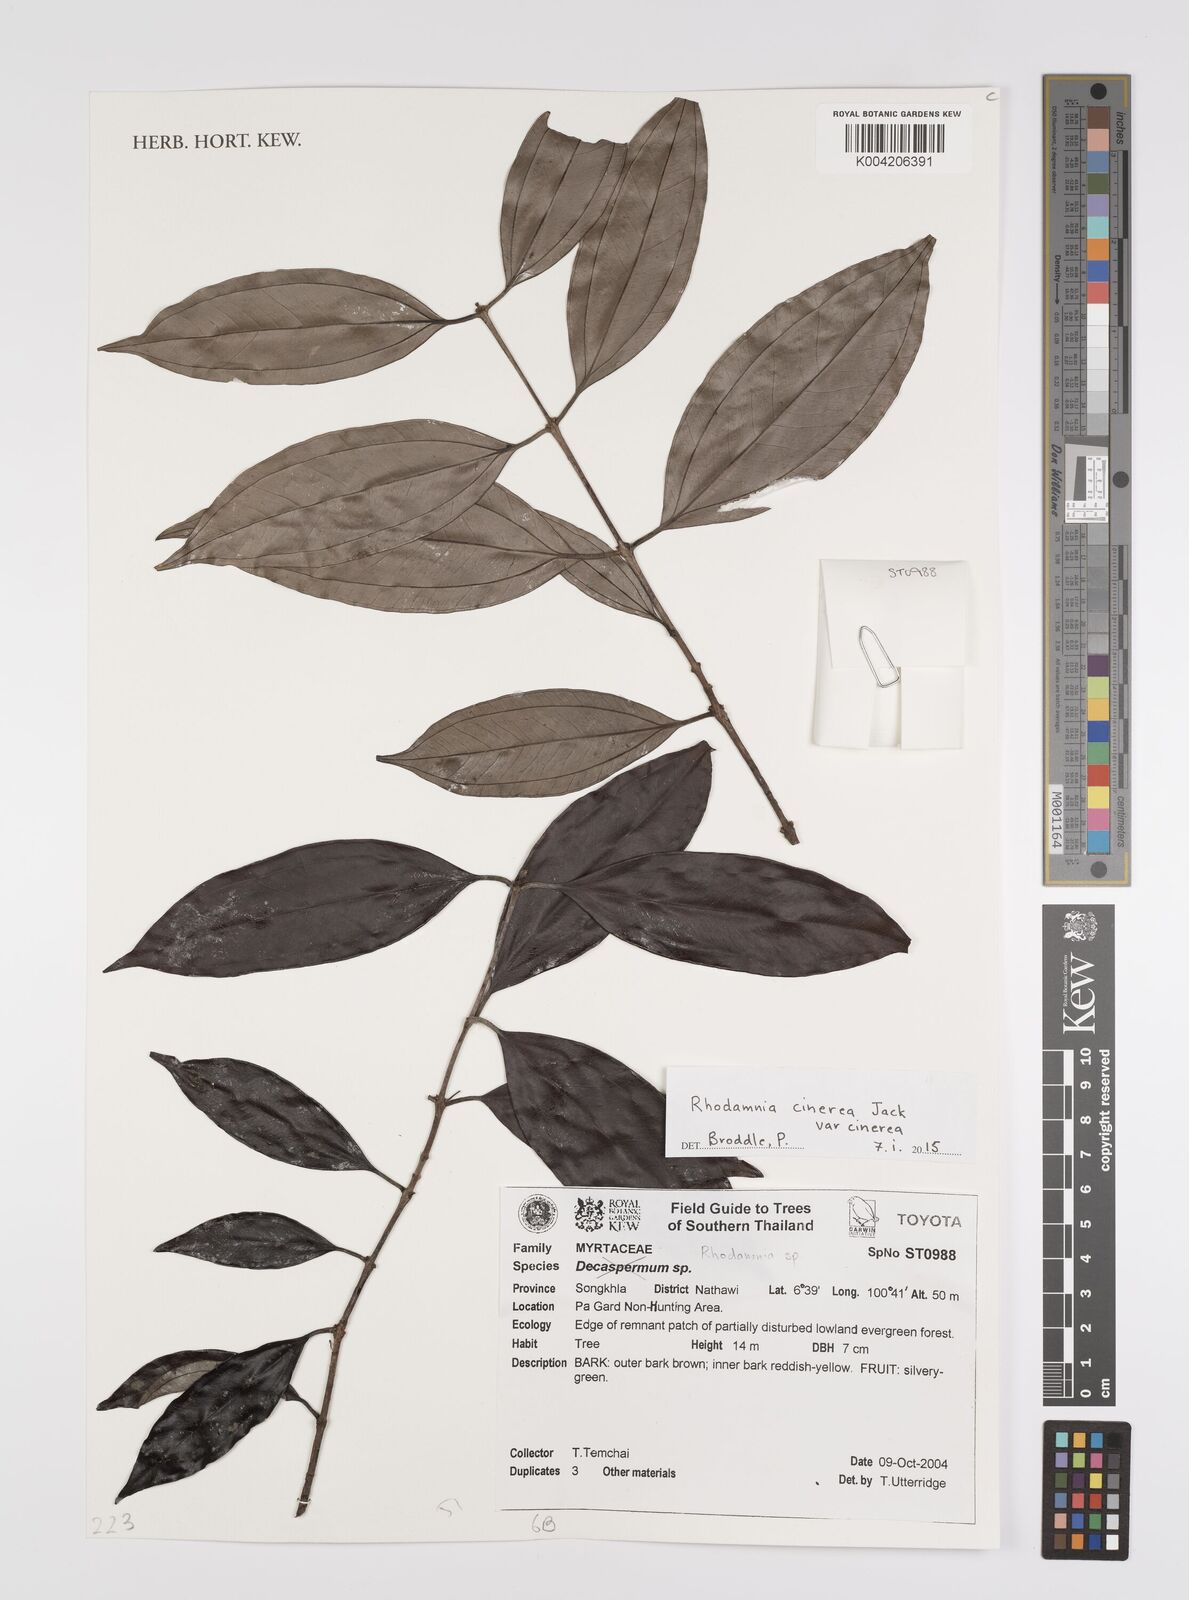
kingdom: Plantae
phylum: Tracheophyta
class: Magnoliopsida
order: Myrtales
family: Myrtaceae
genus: Rhodamnia
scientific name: Rhodamnia cinerea
